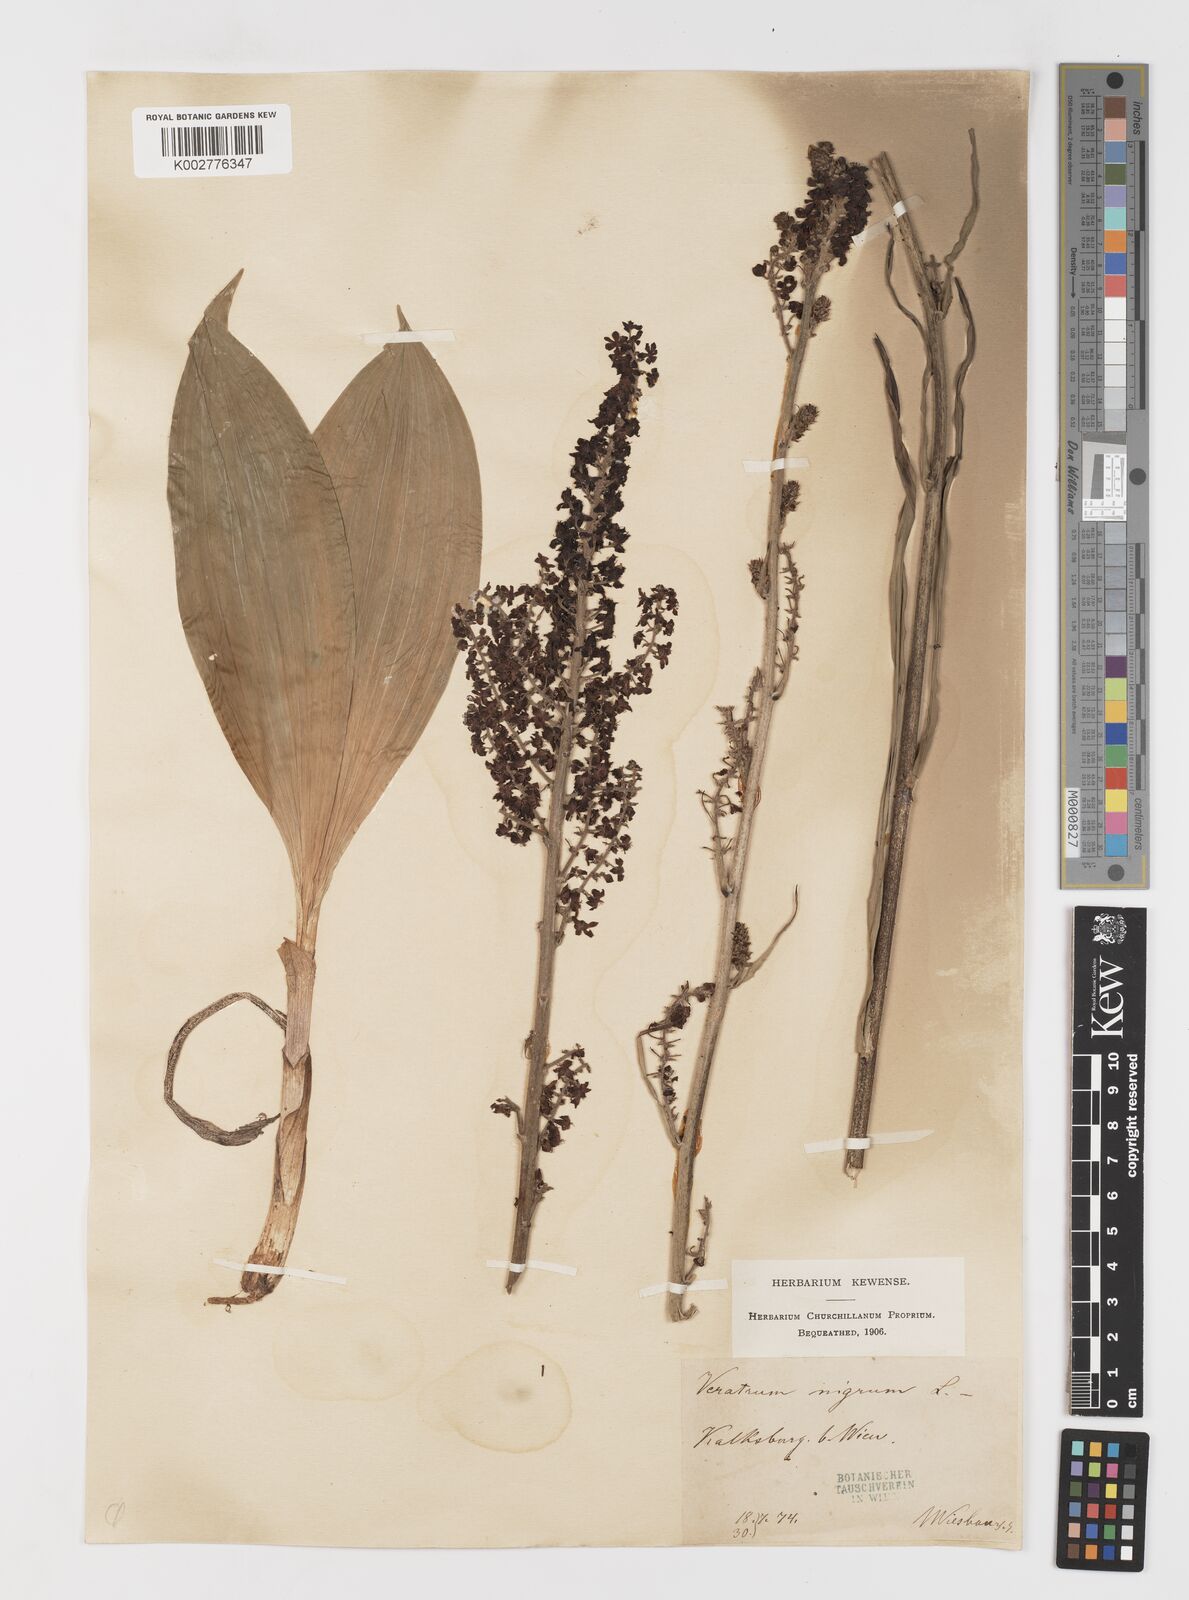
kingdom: Plantae
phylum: Tracheophyta
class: Liliopsida
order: Liliales
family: Melanthiaceae
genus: Veratrum
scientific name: Veratrum nigrum
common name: Black veratrum
